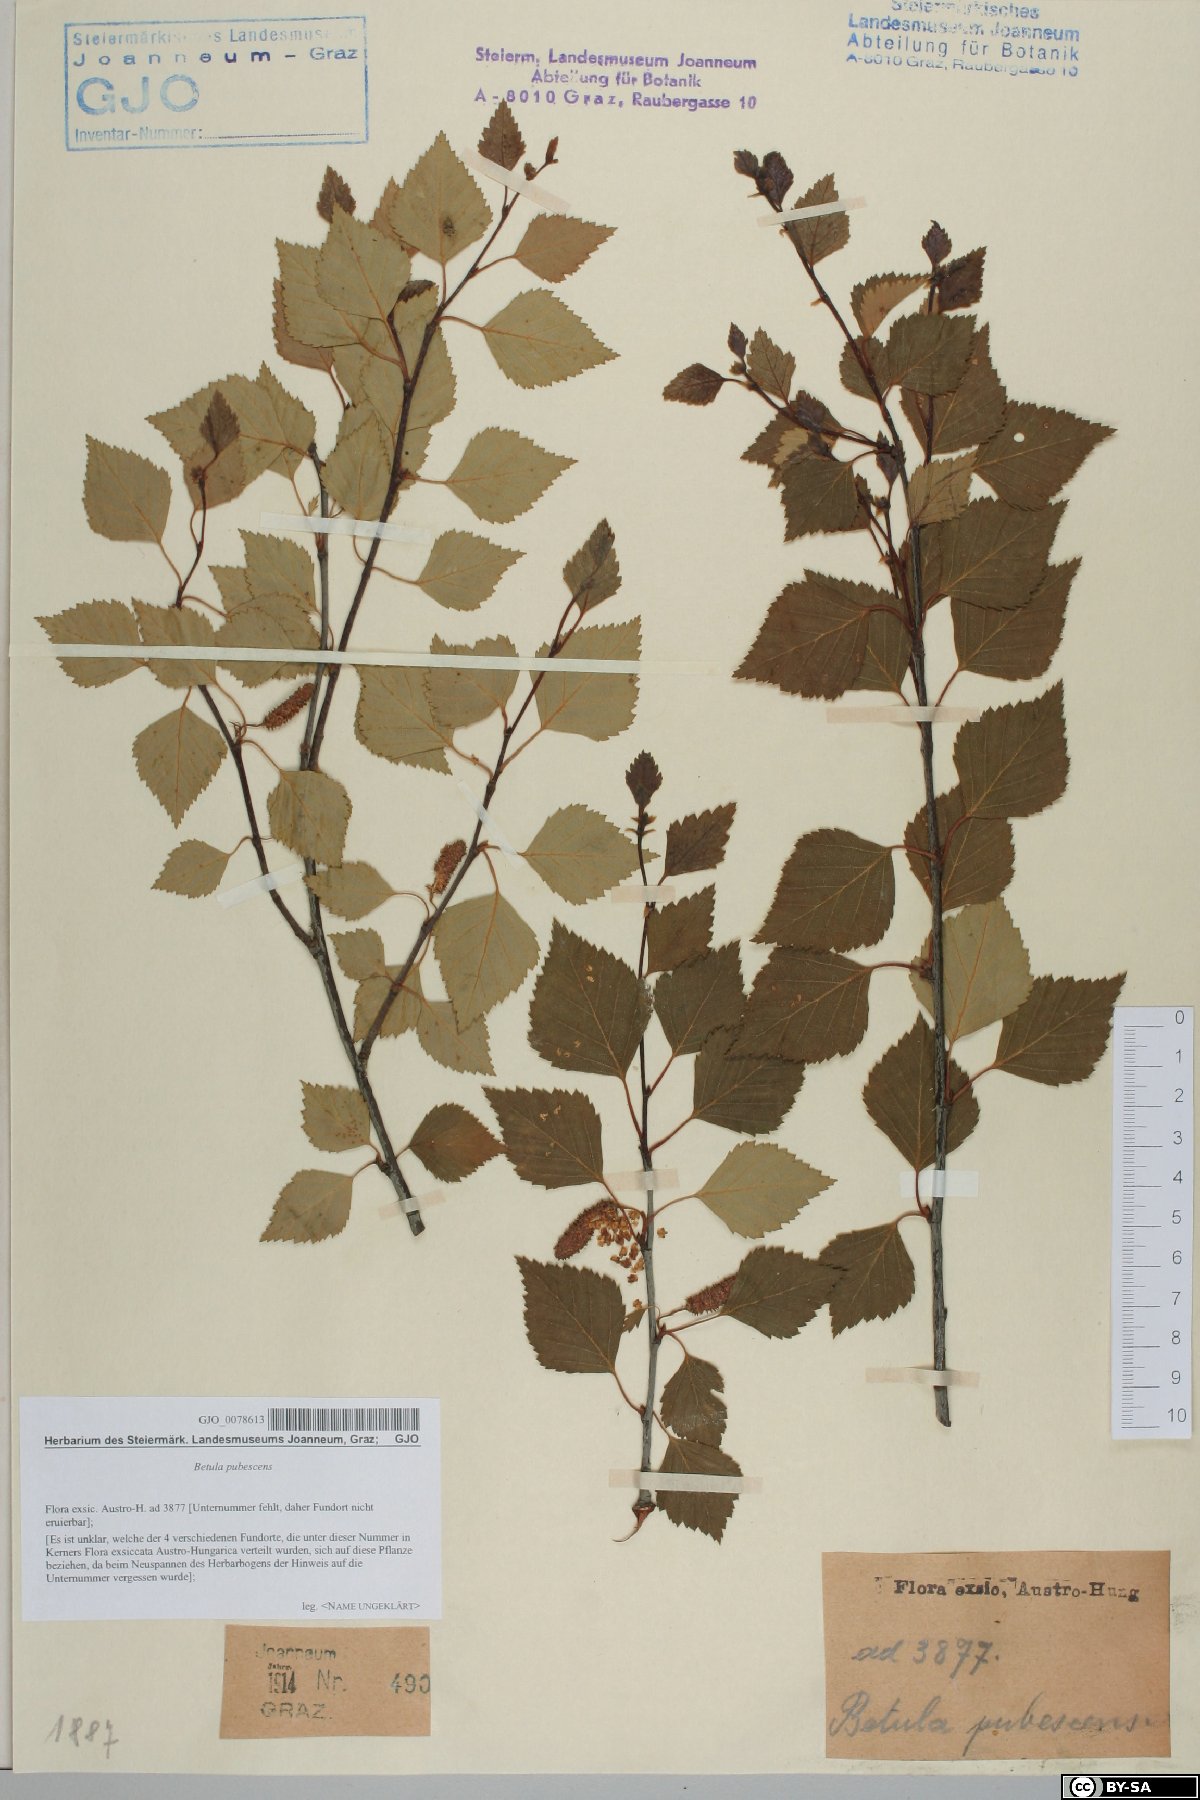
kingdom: Plantae
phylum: Tracheophyta
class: Magnoliopsida
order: Fagales
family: Betulaceae
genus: Betula
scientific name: Betula pubescens
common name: Downy birch
